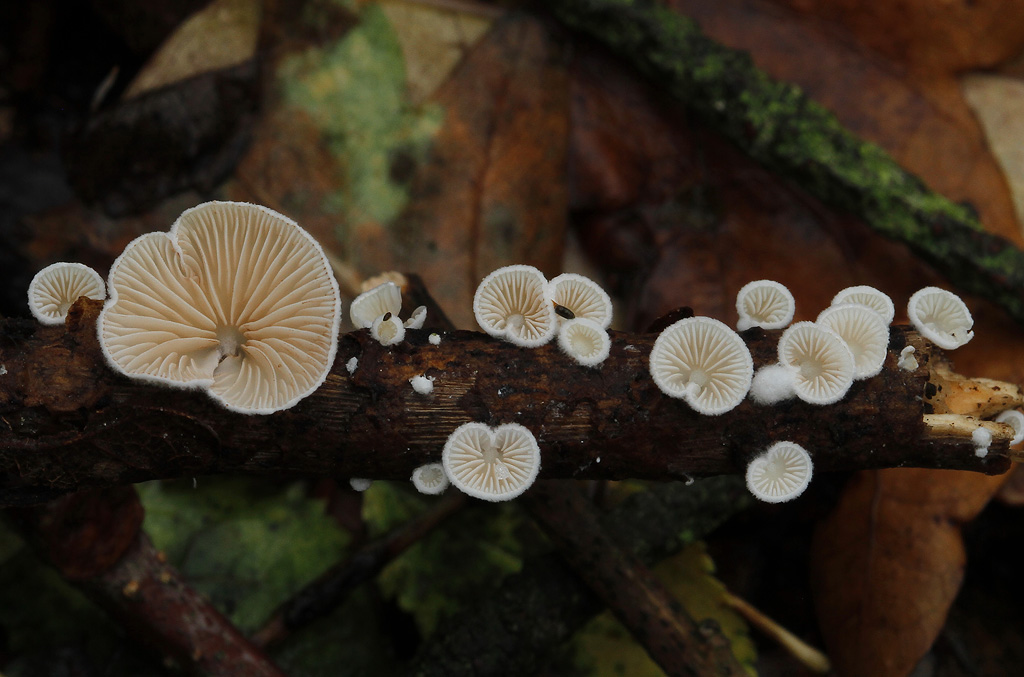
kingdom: Fungi
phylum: Basidiomycota
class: Agaricomycetes
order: Agaricales
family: Crepidotaceae
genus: Crepidotus
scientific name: Crepidotus cesatii
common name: almindelig muslingesvamp
